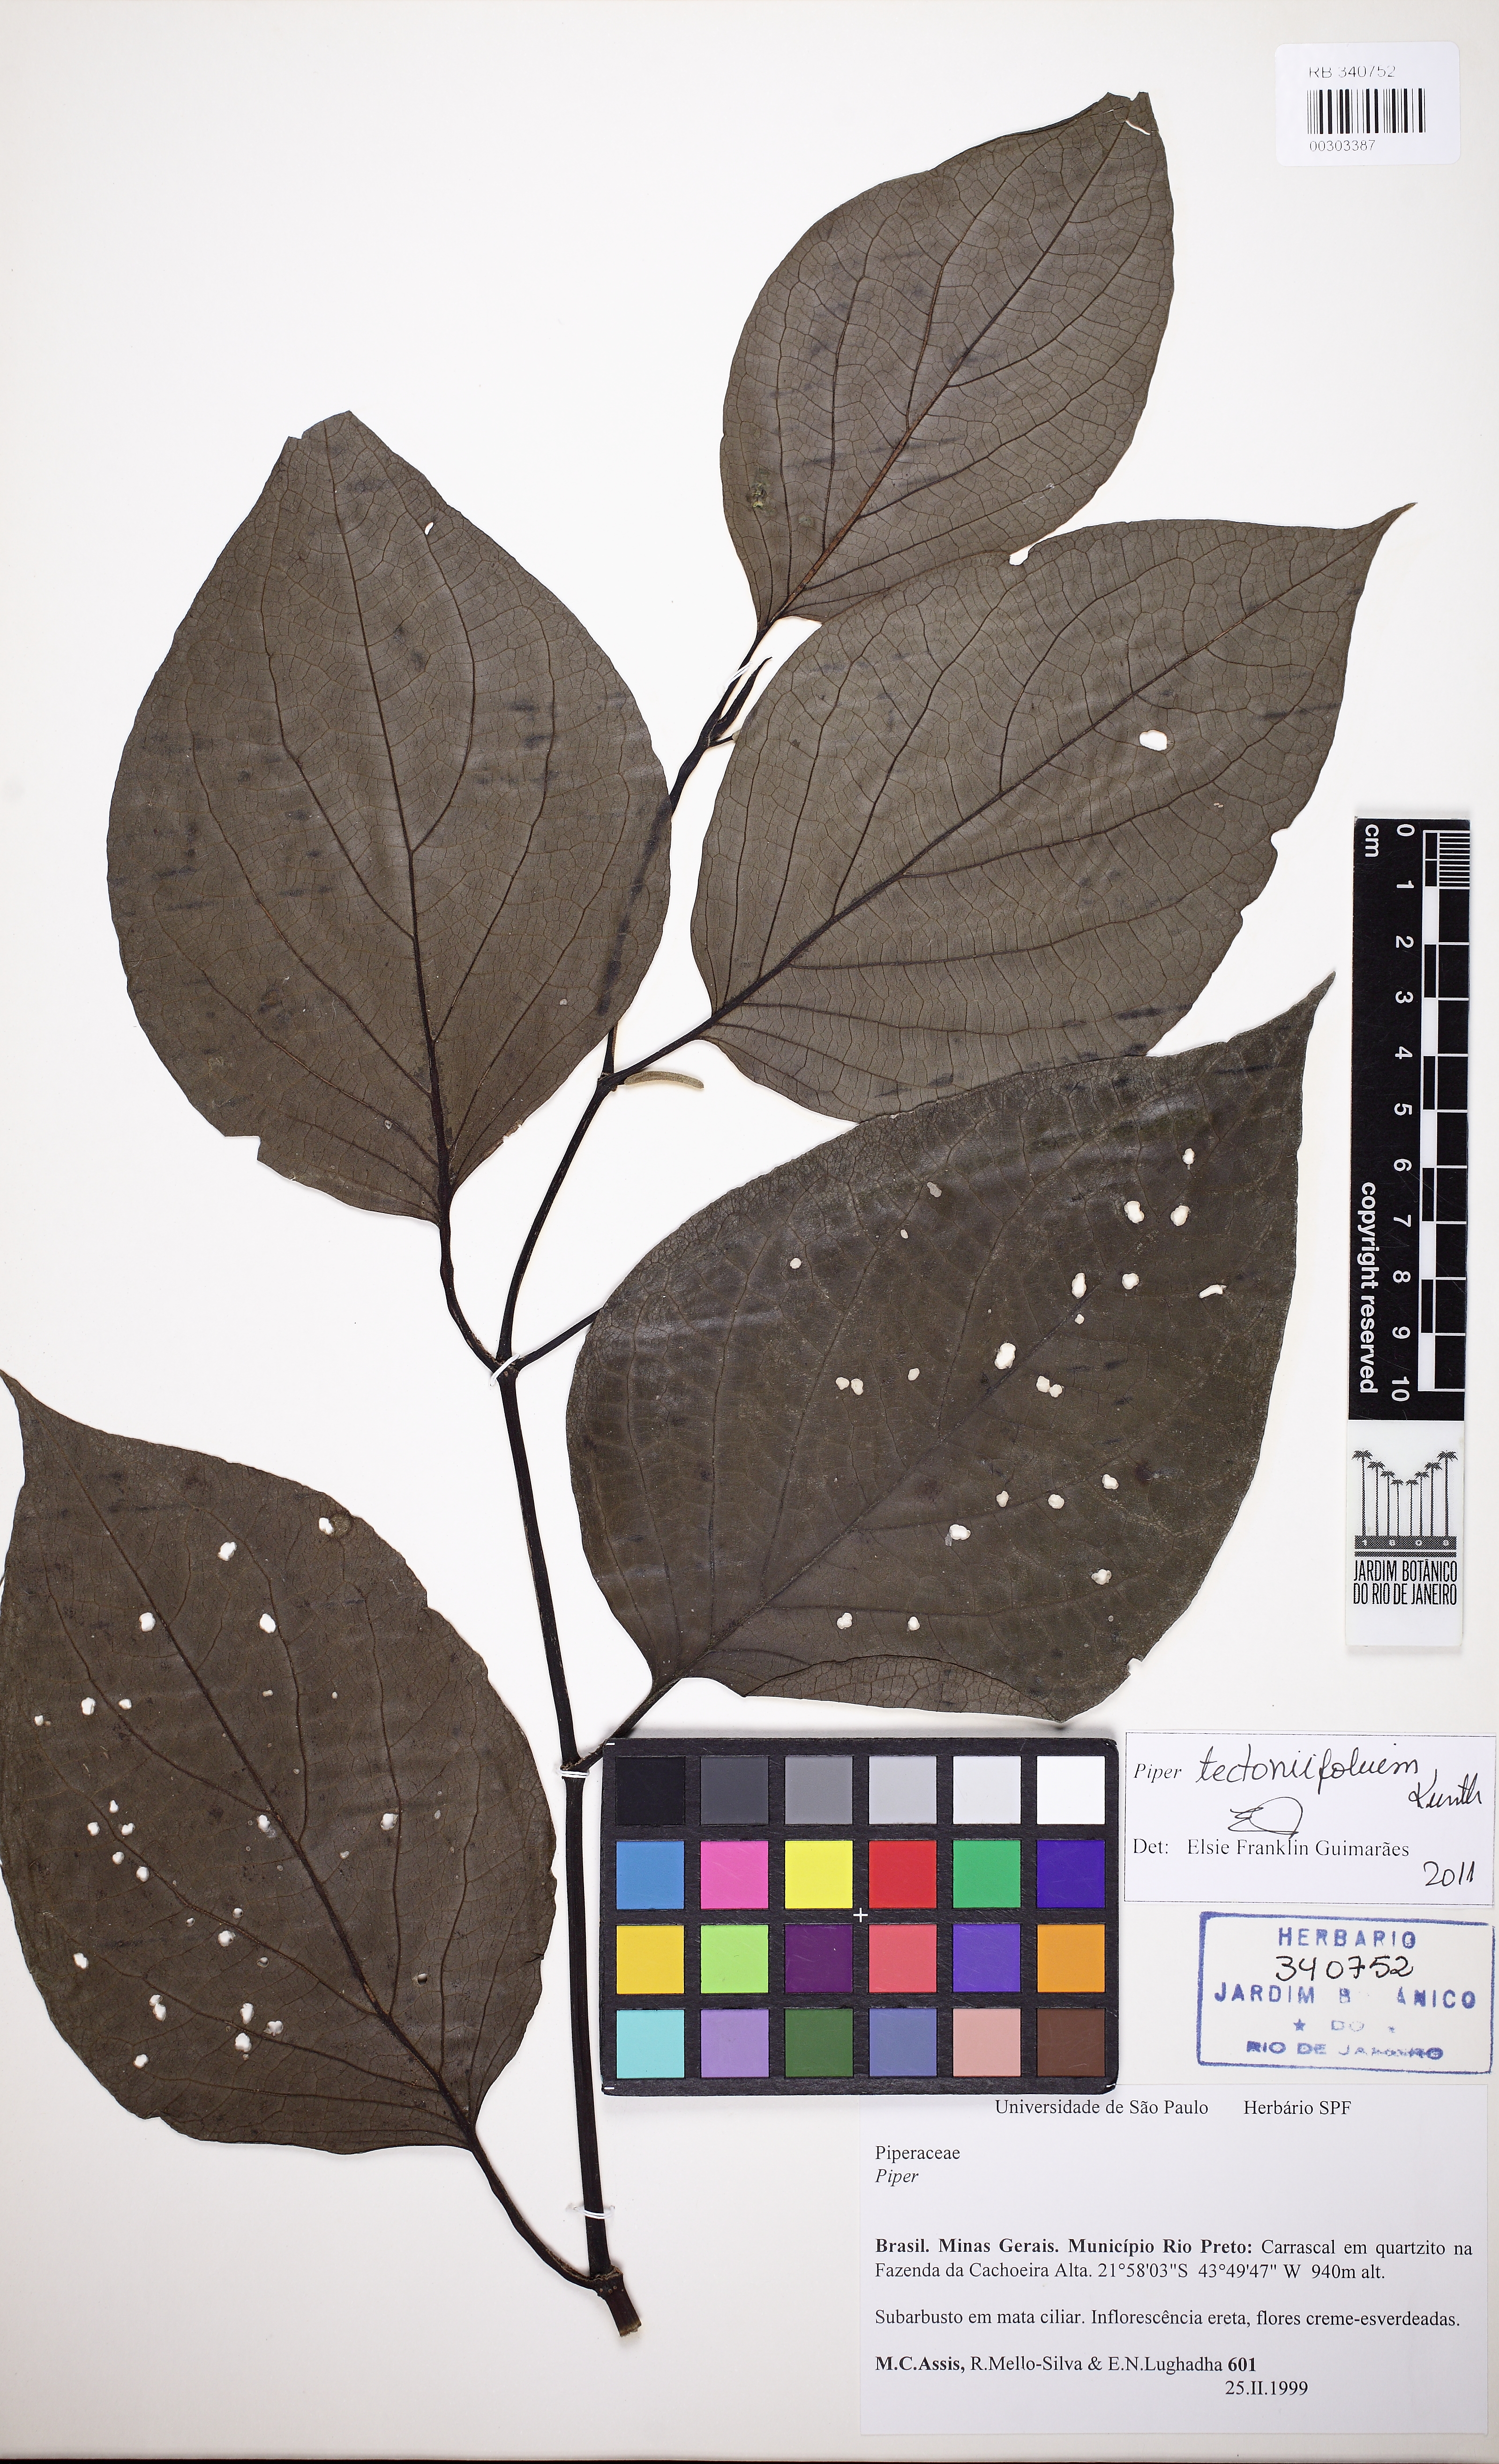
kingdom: Plantae
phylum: Tracheophyta
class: Magnoliopsida
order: Piperales
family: Piperaceae
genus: Piper
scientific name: Piper tectoniifolium
